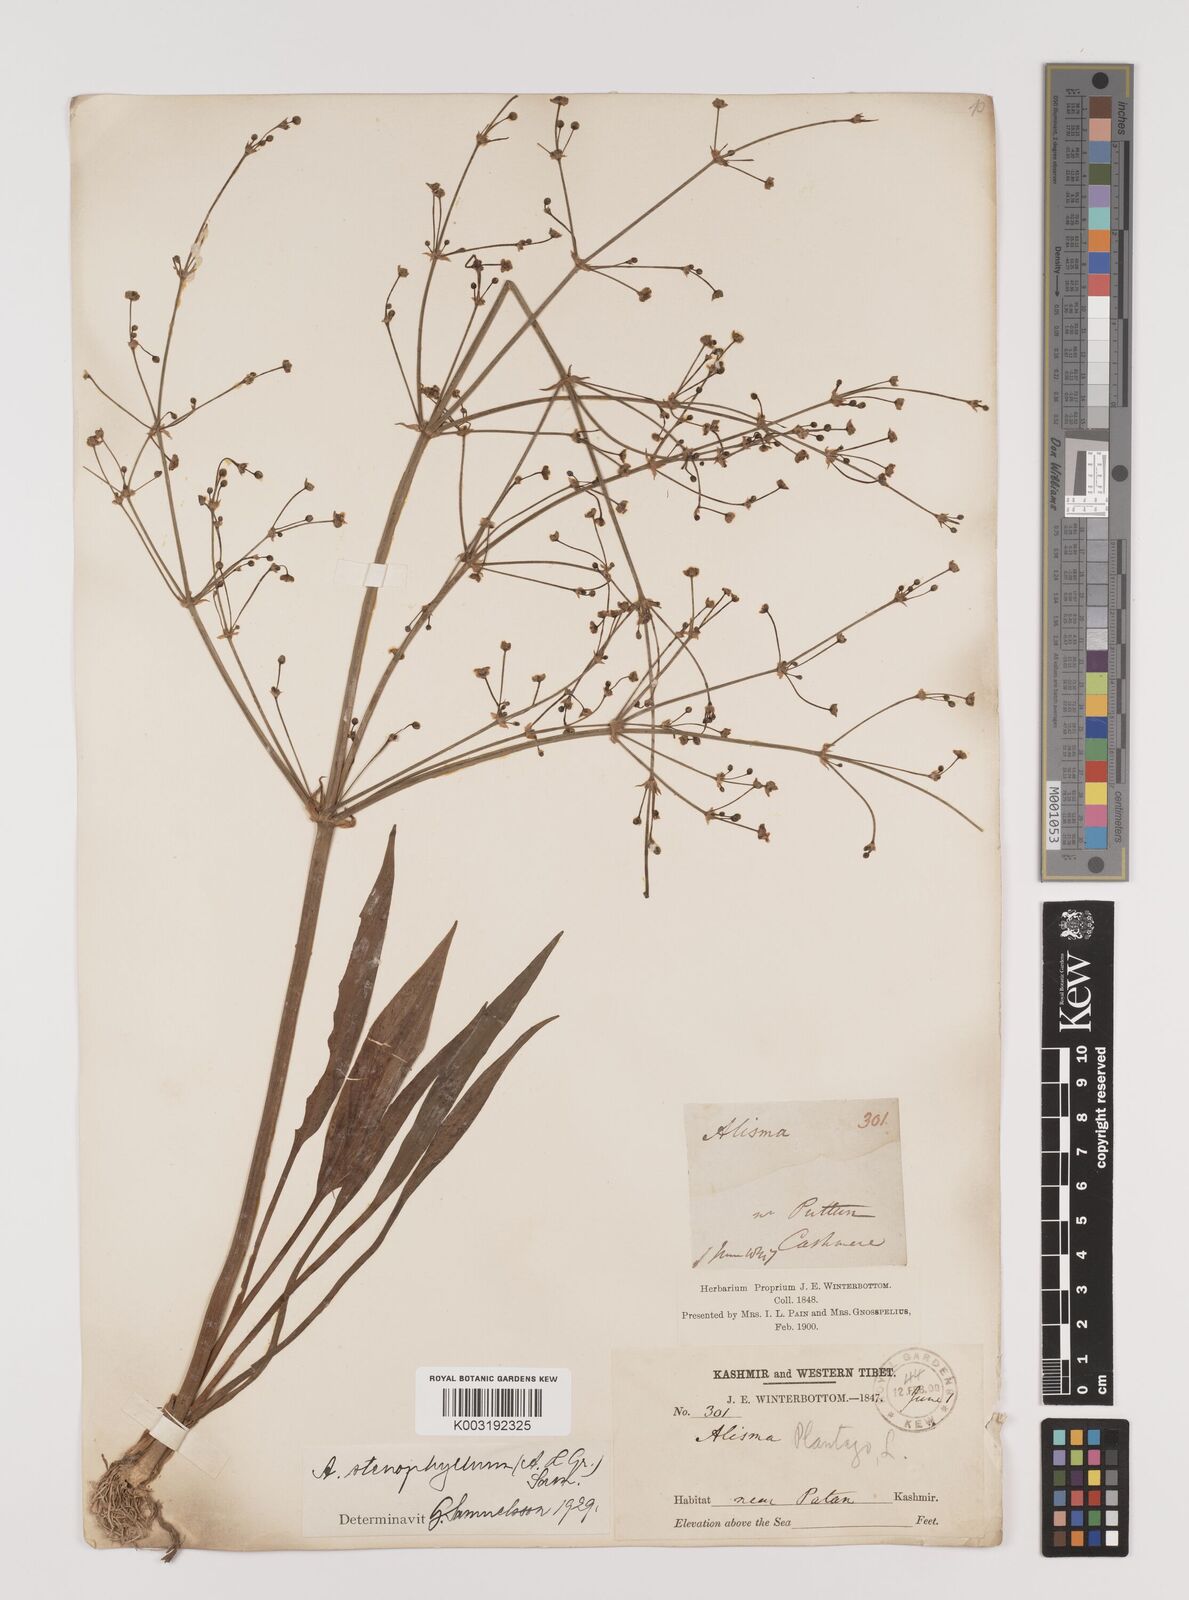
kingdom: Plantae
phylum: Tracheophyta
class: Liliopsida
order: Alismatales
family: Alismataceae
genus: Alisma
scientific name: Alisma lanceolatum
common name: Narrow-leaved water-plantain
